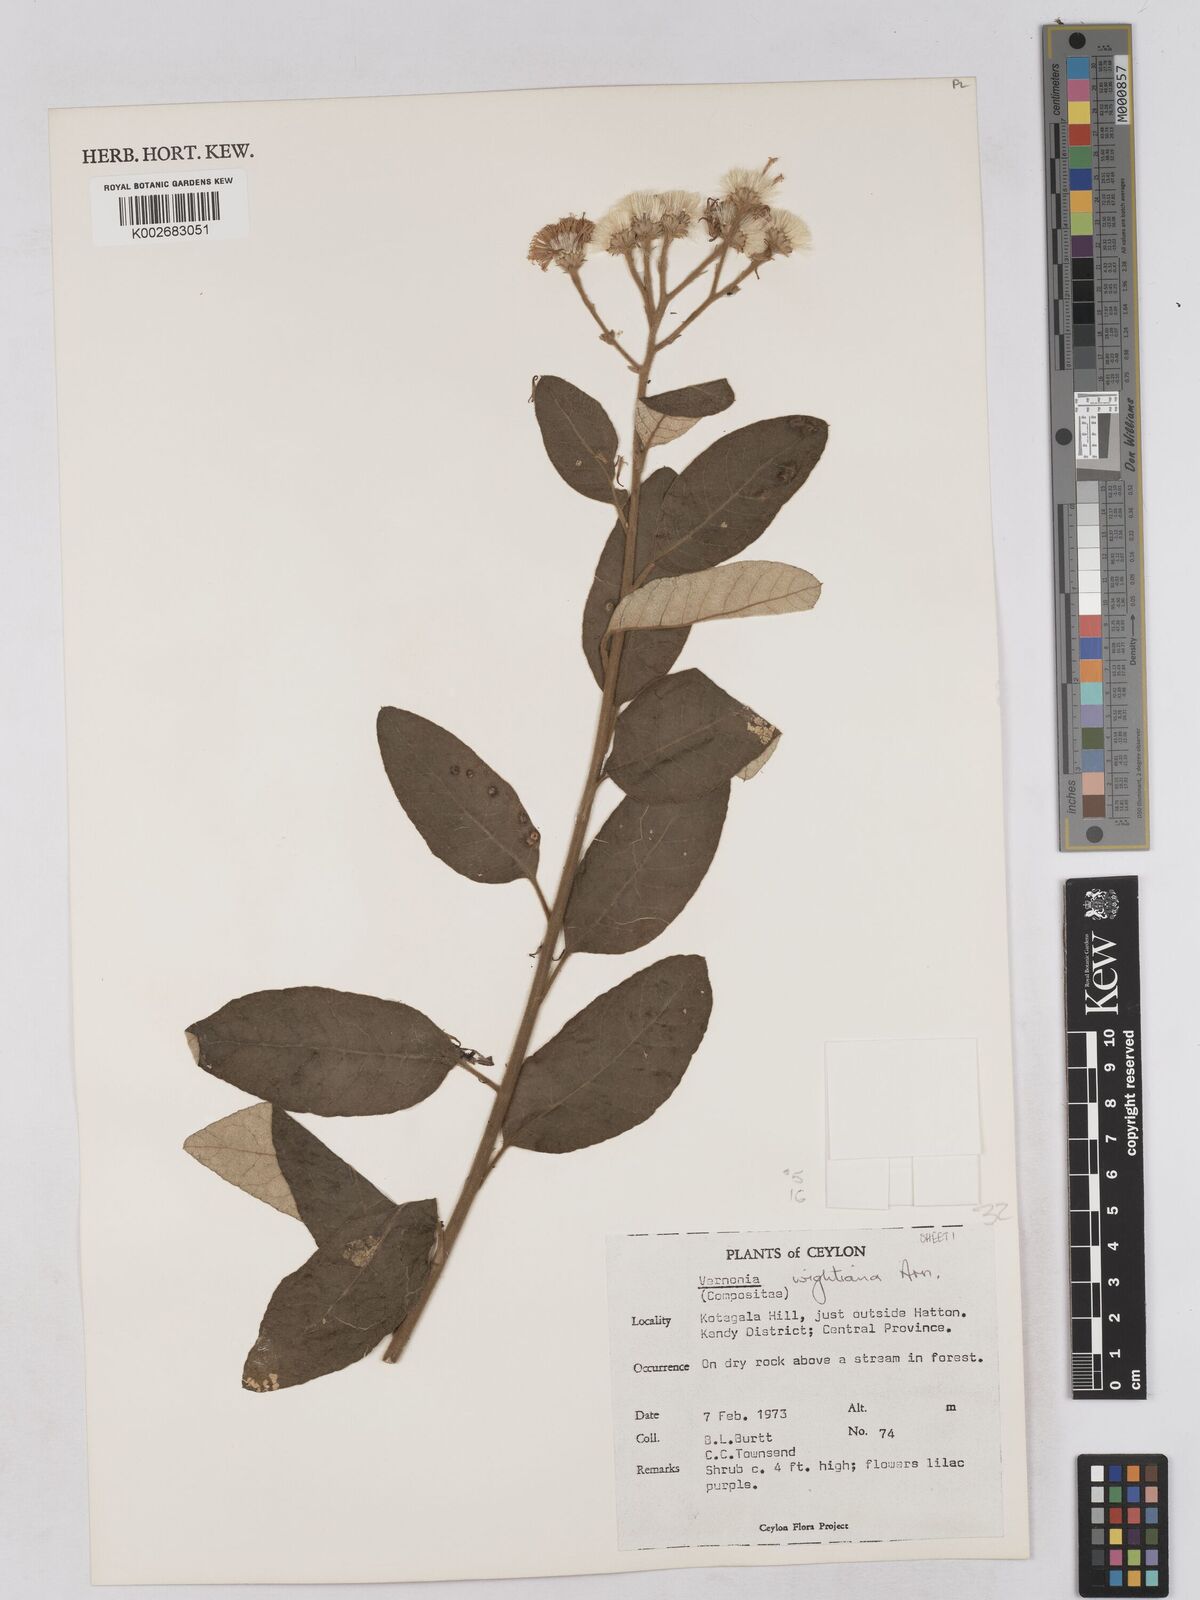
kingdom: Plantae
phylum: Tracheophyta
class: Magnoliopsida
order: Asterales
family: Asteraceae
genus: Uniyala
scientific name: Uniyala wightiana
